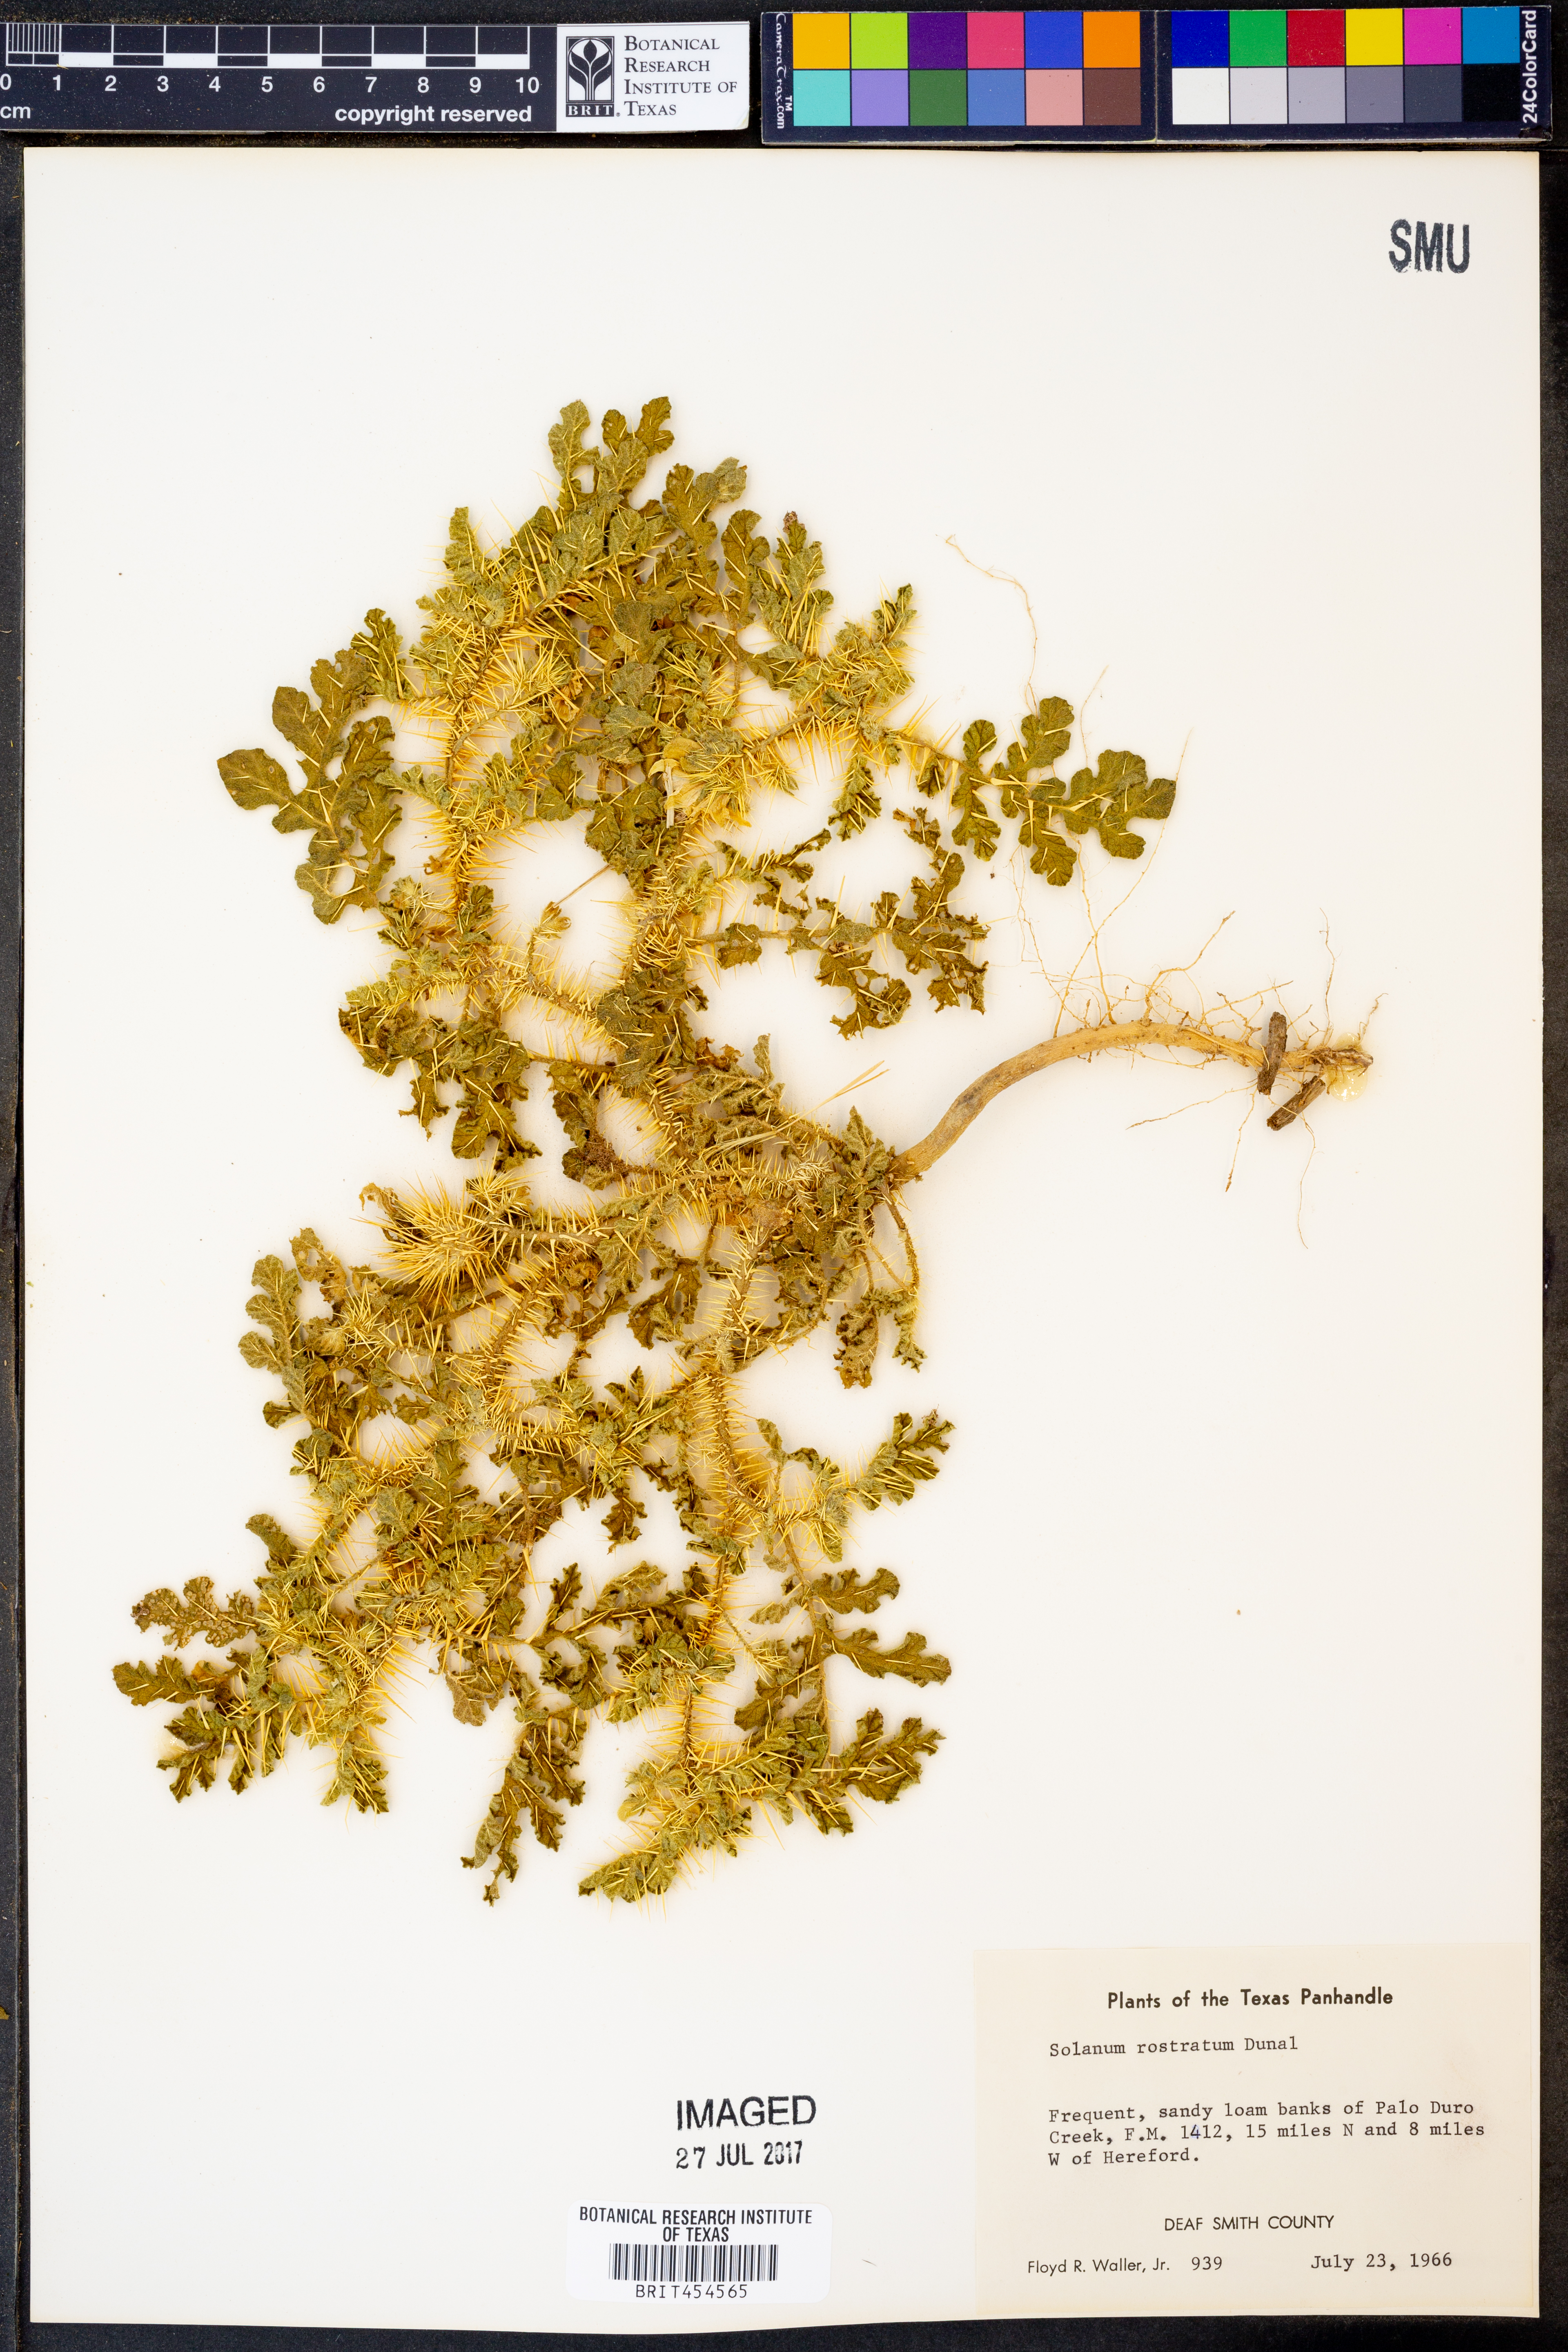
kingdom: Plantae
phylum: Tracheophyta
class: Magnoliopsida
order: Solanales
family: Solanaceae
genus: Solanum
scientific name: Solanum angustifolium
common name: Buffalobur nightshade
